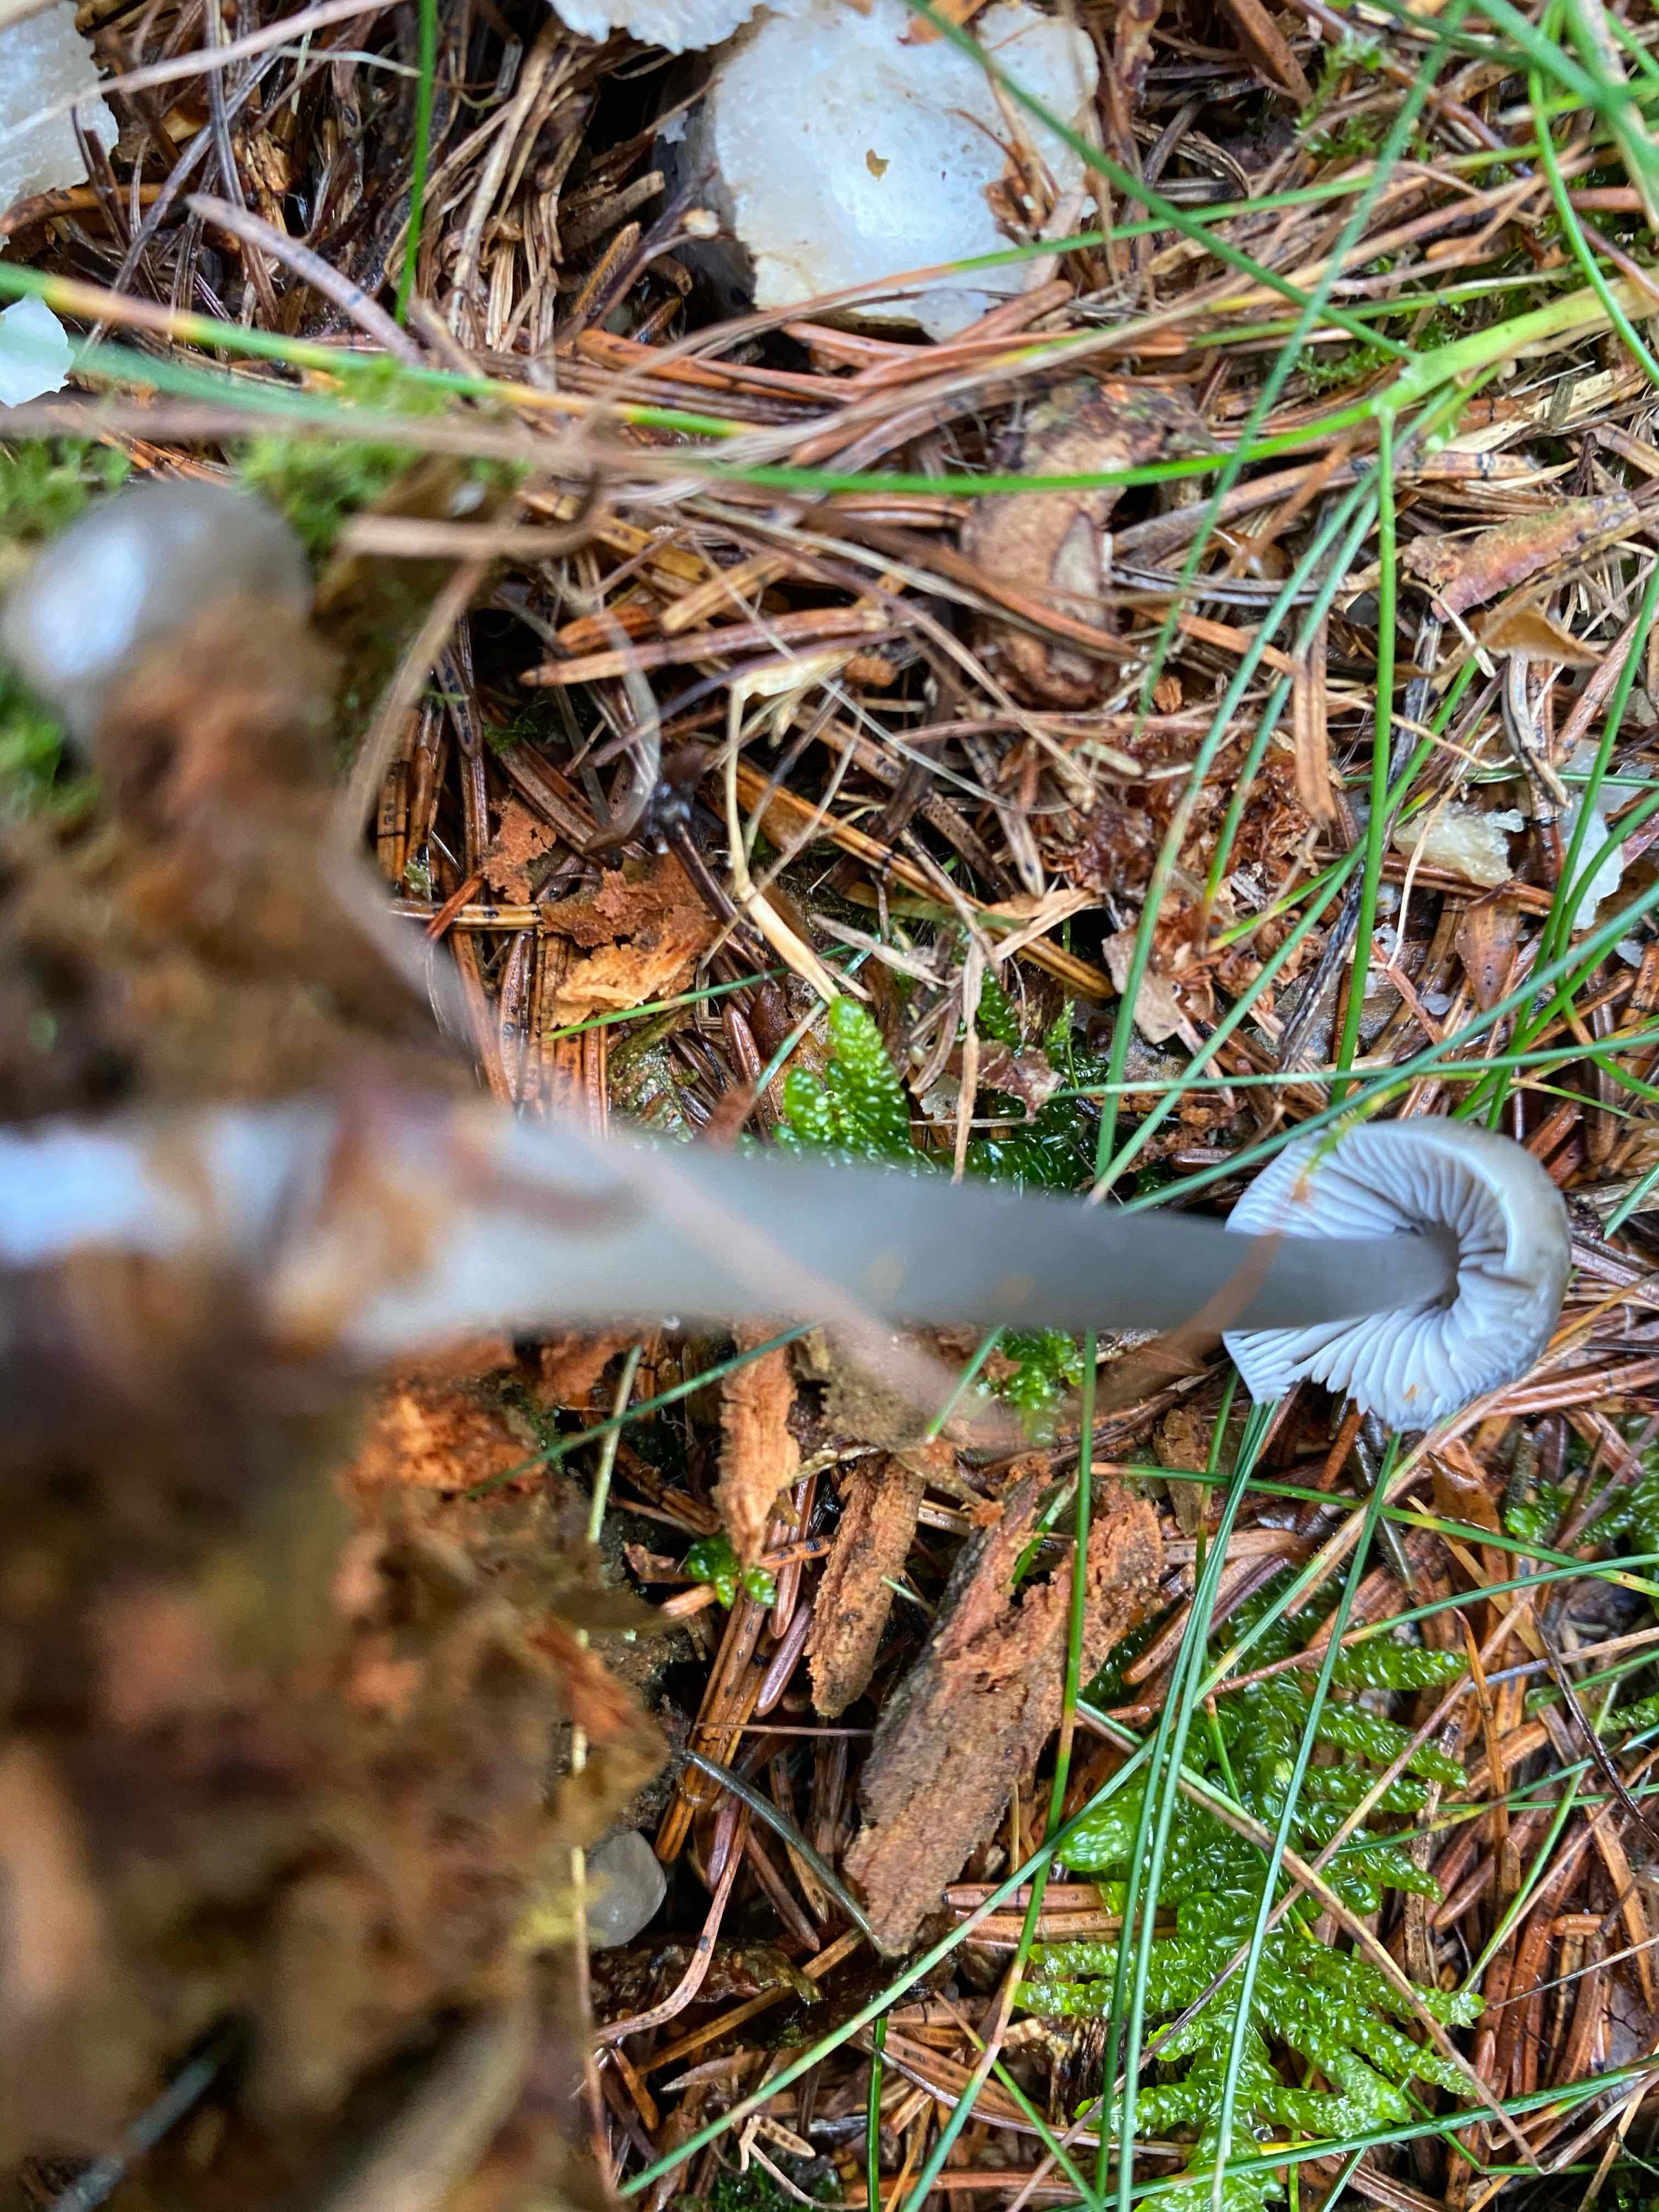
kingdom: Fungi
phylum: Basidiomycota
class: Agaricomycetes
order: Agaricales
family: Mycenaceae
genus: Mycena
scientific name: Mycena
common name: huesvamp
